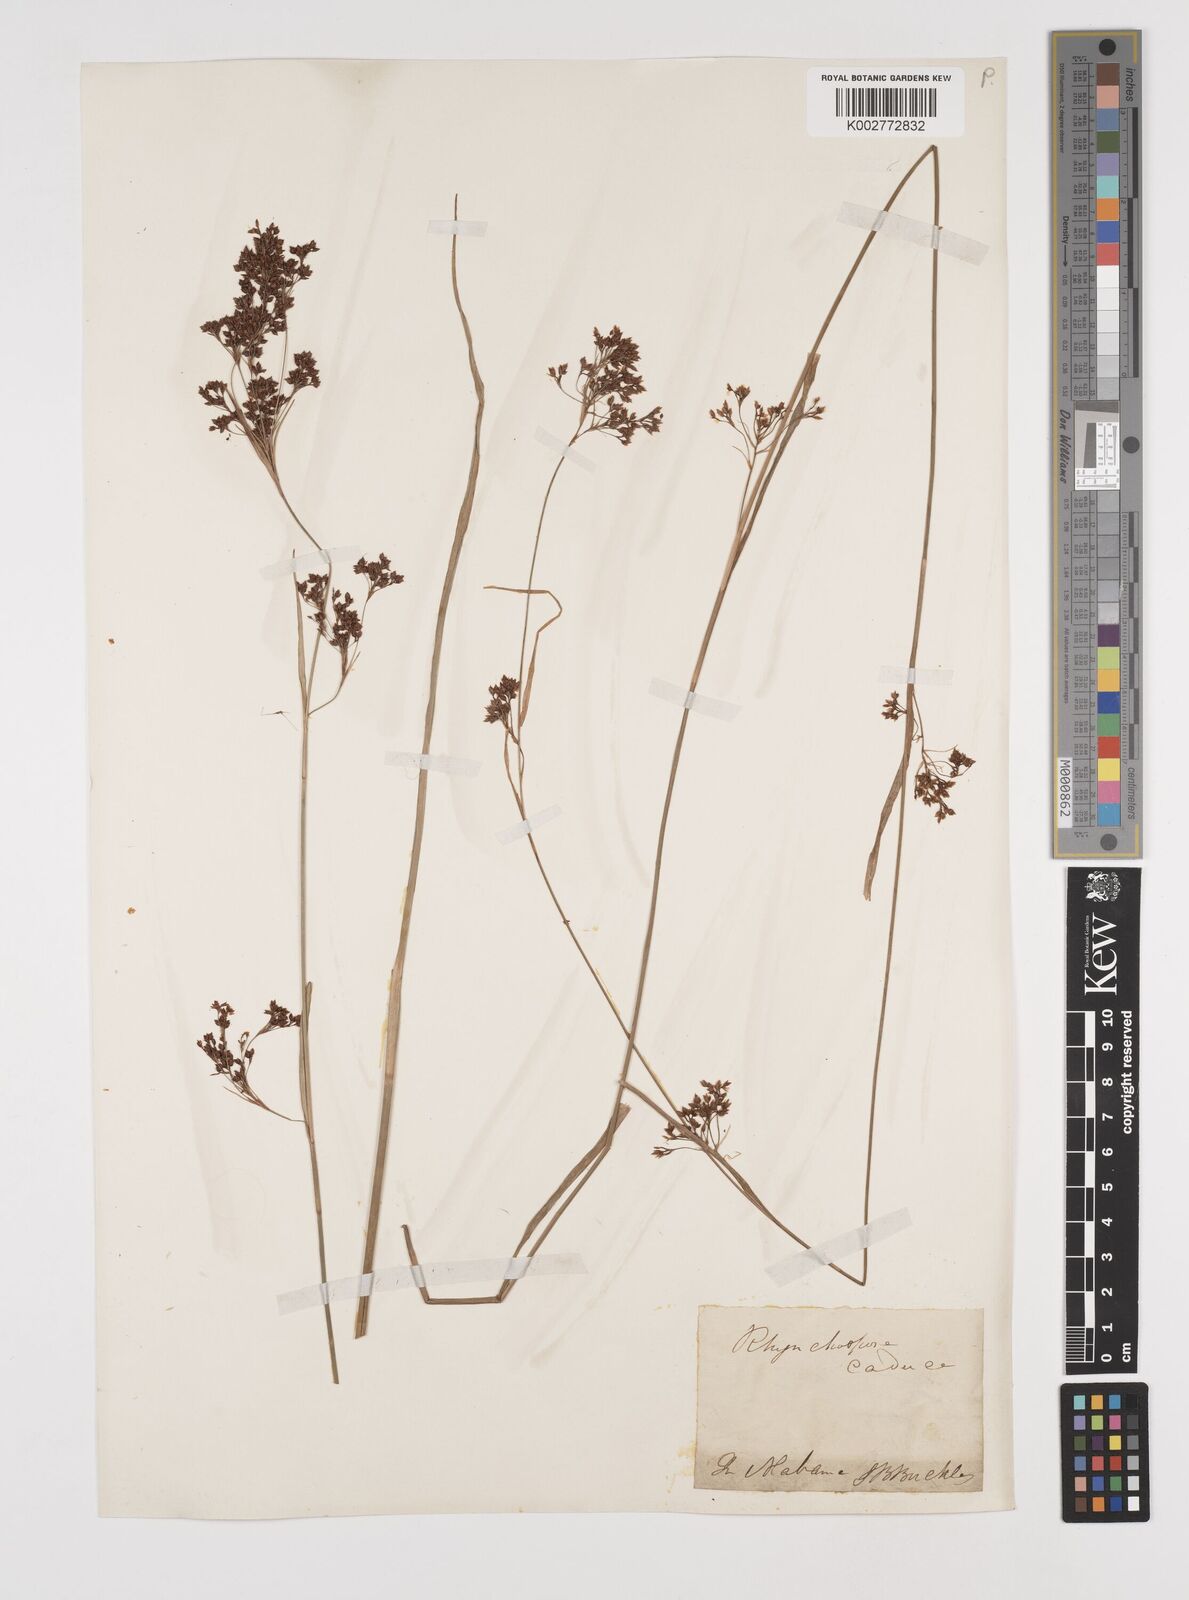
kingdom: Plantae
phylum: Tracheophyta
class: Liliopsida
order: Poales
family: Cyperaceae
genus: Rhynchospora
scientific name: Rhynchospora caduca
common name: Anglestem beaksedge
